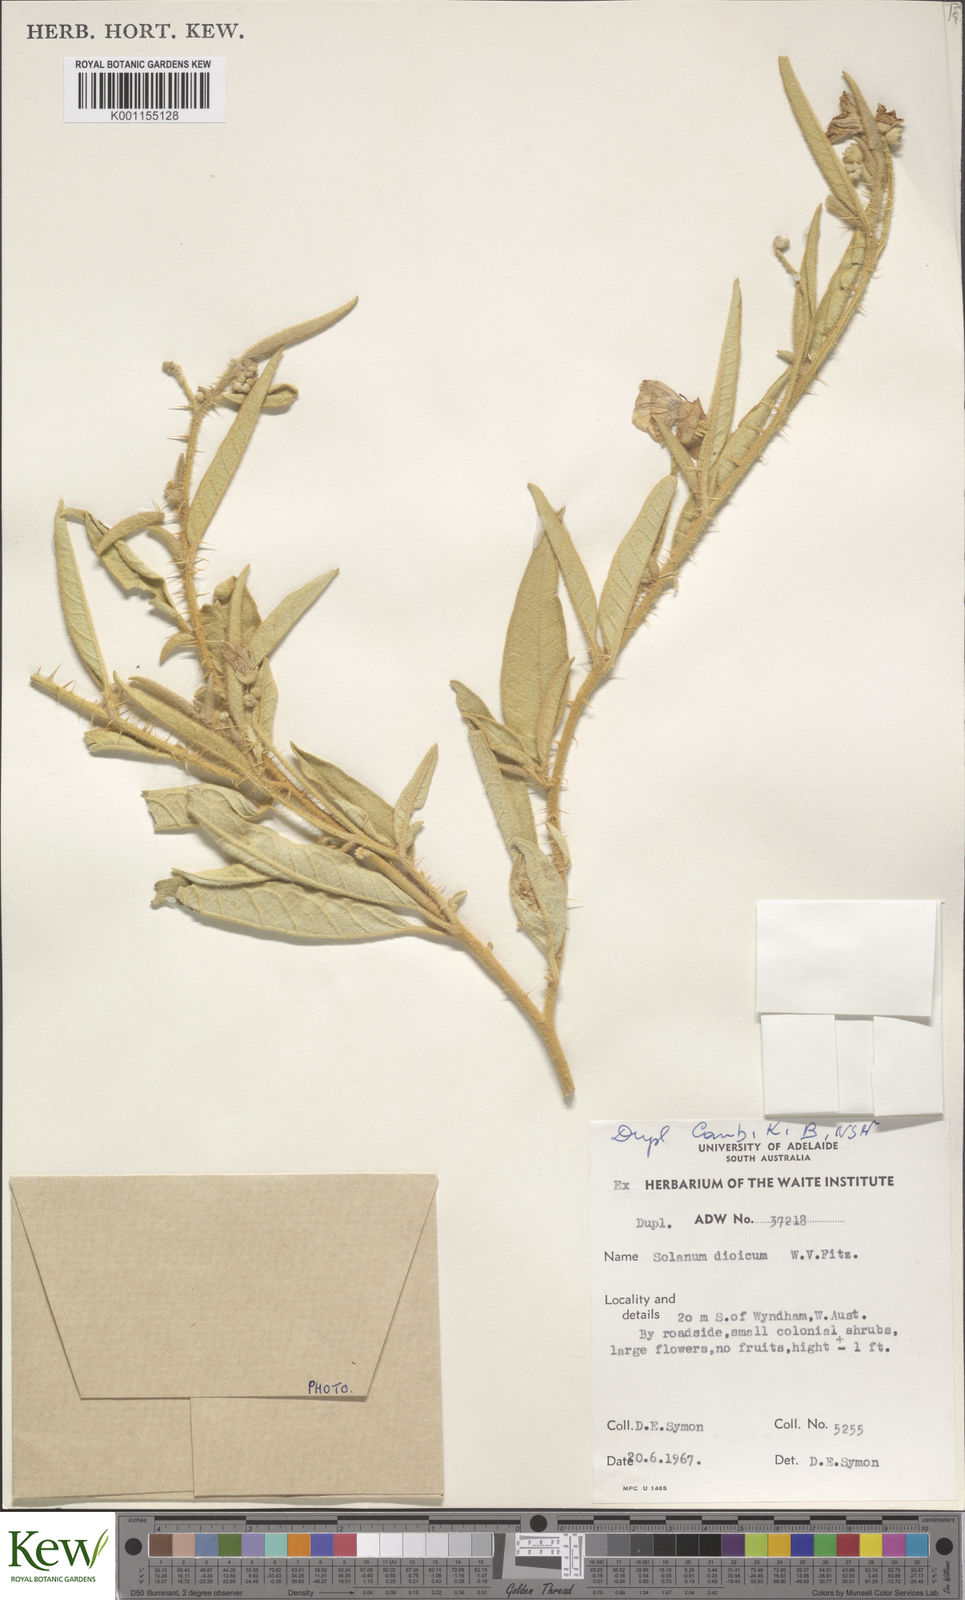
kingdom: Plantae
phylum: Tracheophyta
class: Magnoliopsida
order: Solanales
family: Solanaceae
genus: Solanum
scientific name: Solanum dioicum
